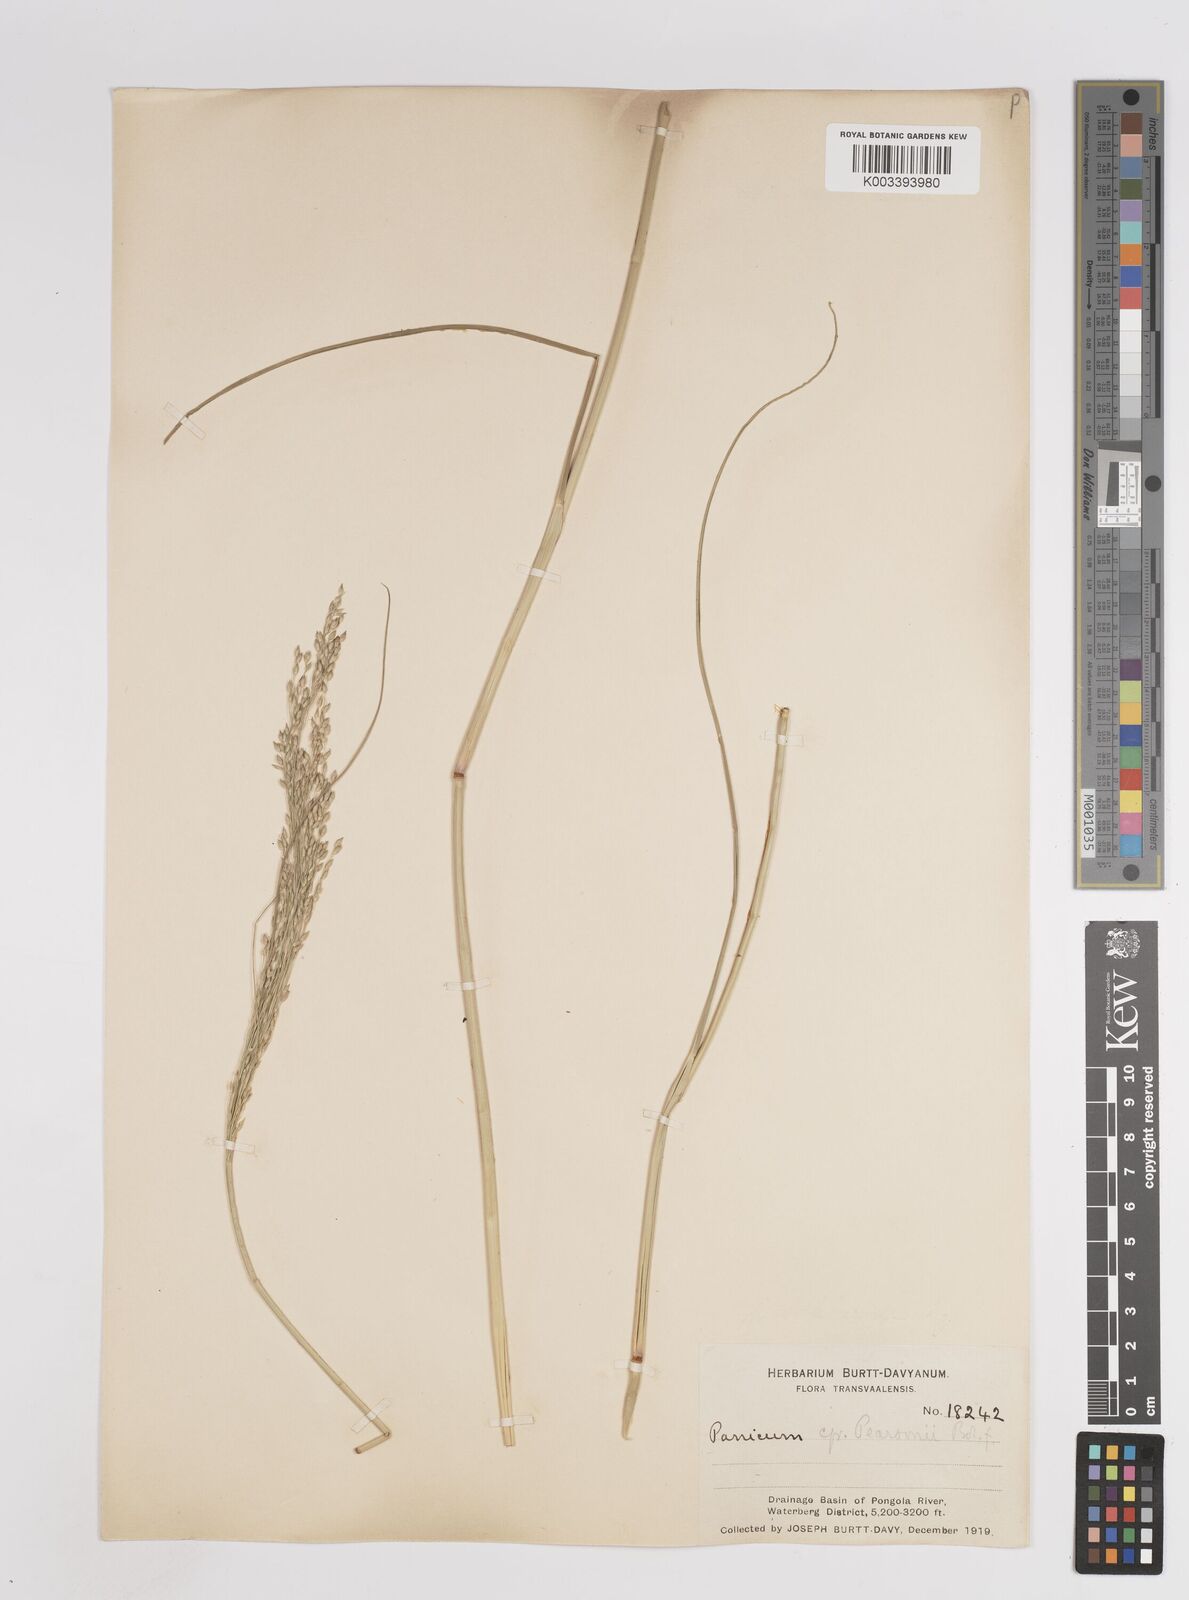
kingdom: Plantae
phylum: Tracheophyta
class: Liliopsida
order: Poales
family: Poaceae
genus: Panicum
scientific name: Panicum coloratum
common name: Kleingrass
